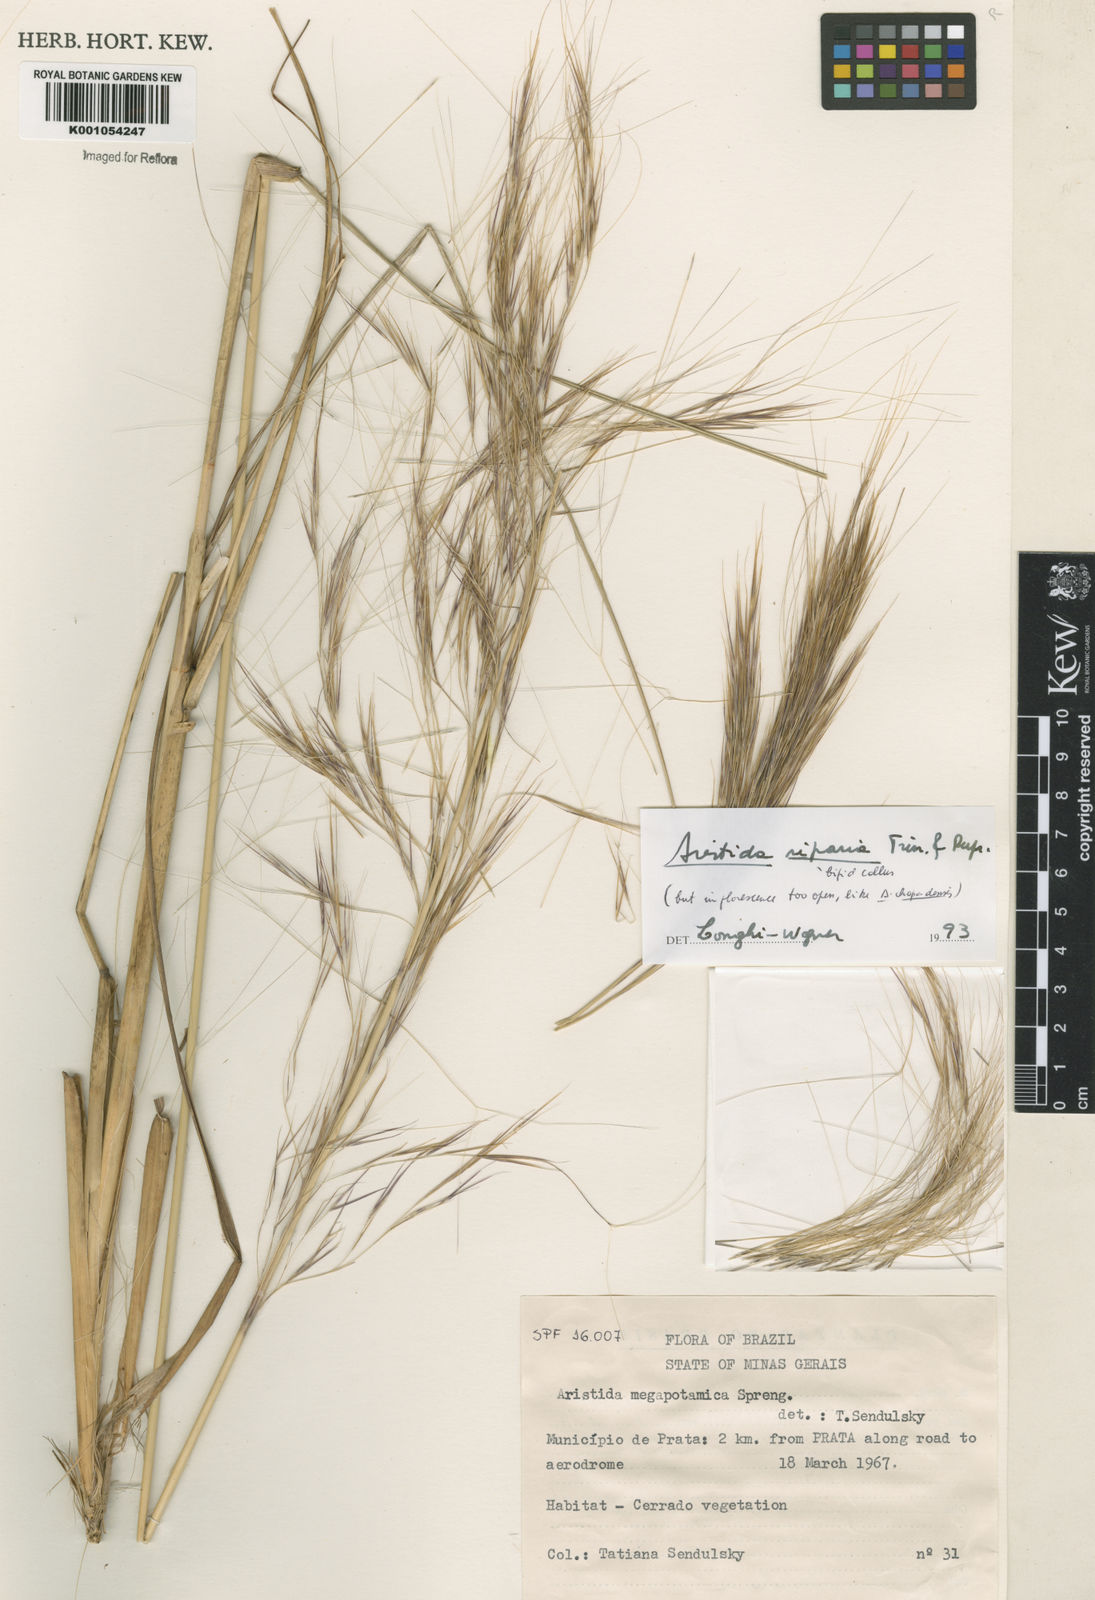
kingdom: Plantae
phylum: Tracheophyta
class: Liliopsida
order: Poales
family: Poaceae
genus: Aristida
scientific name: Aristida riparia
